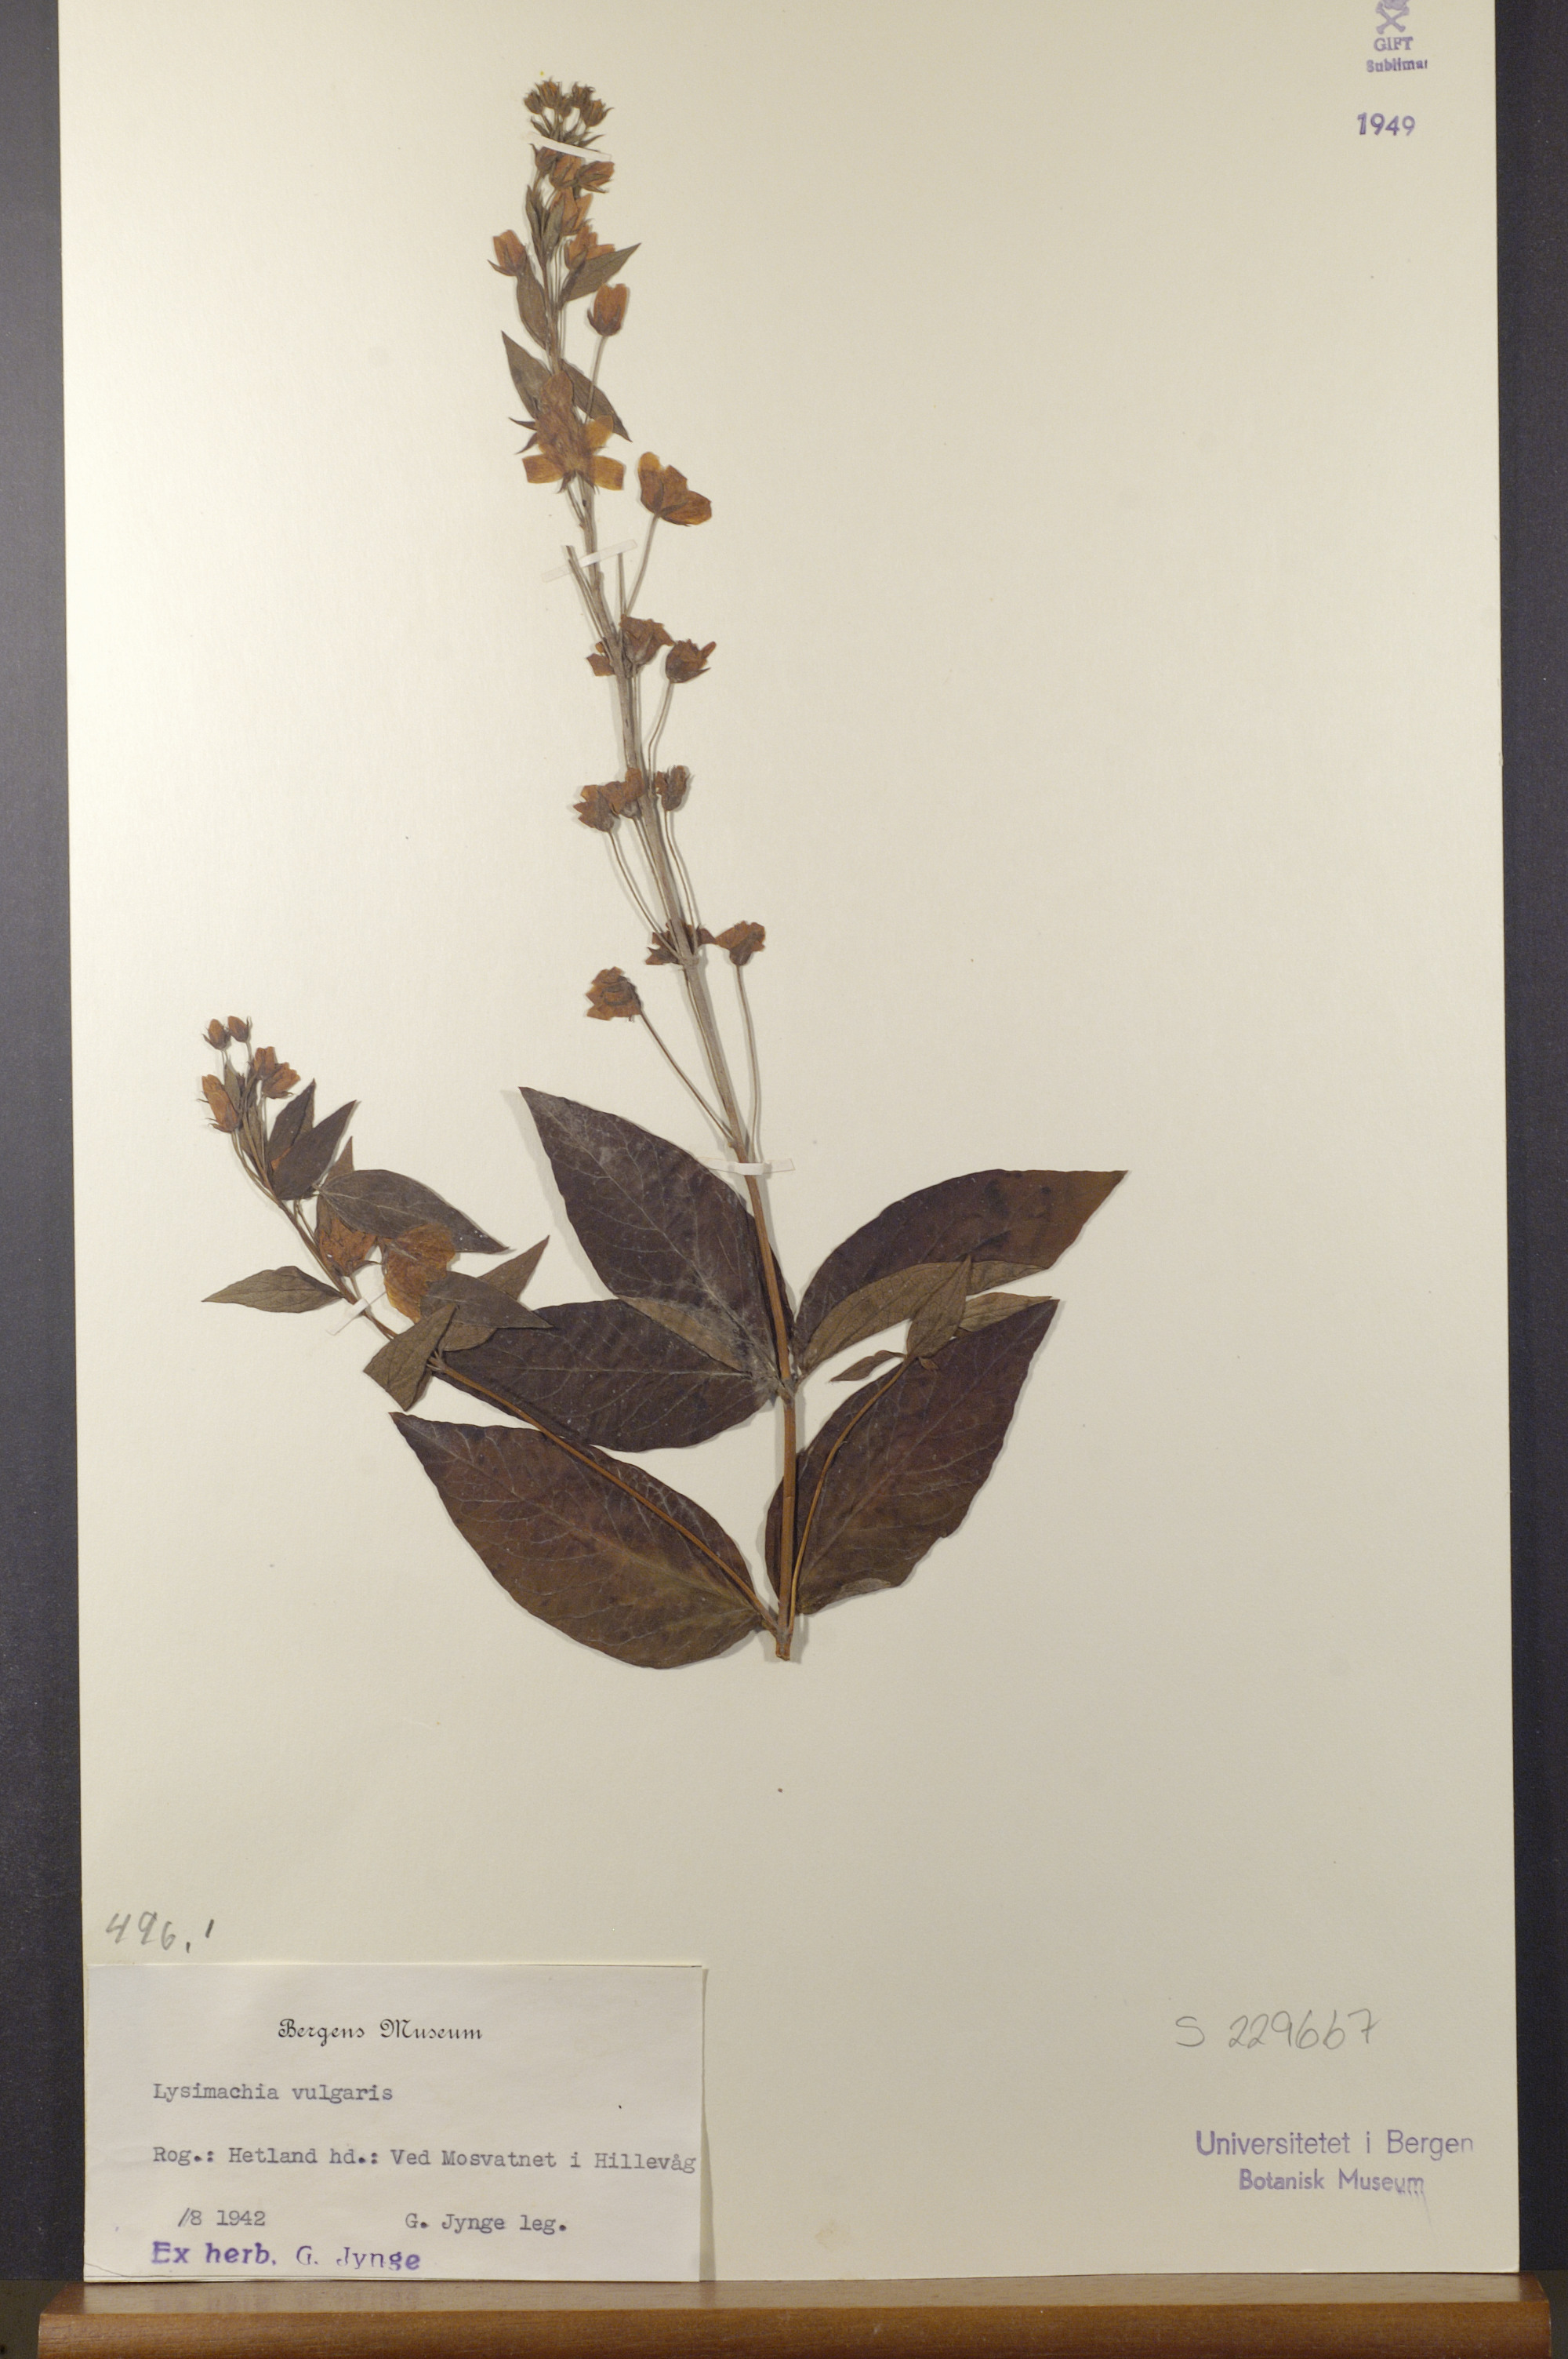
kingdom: Plantae
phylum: Tracheophyta
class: Magnoliopsida
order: Ericales
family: Primulaceae
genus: Lysimachia
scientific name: Lysimachia vulgaris
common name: Yellow loosestrife
